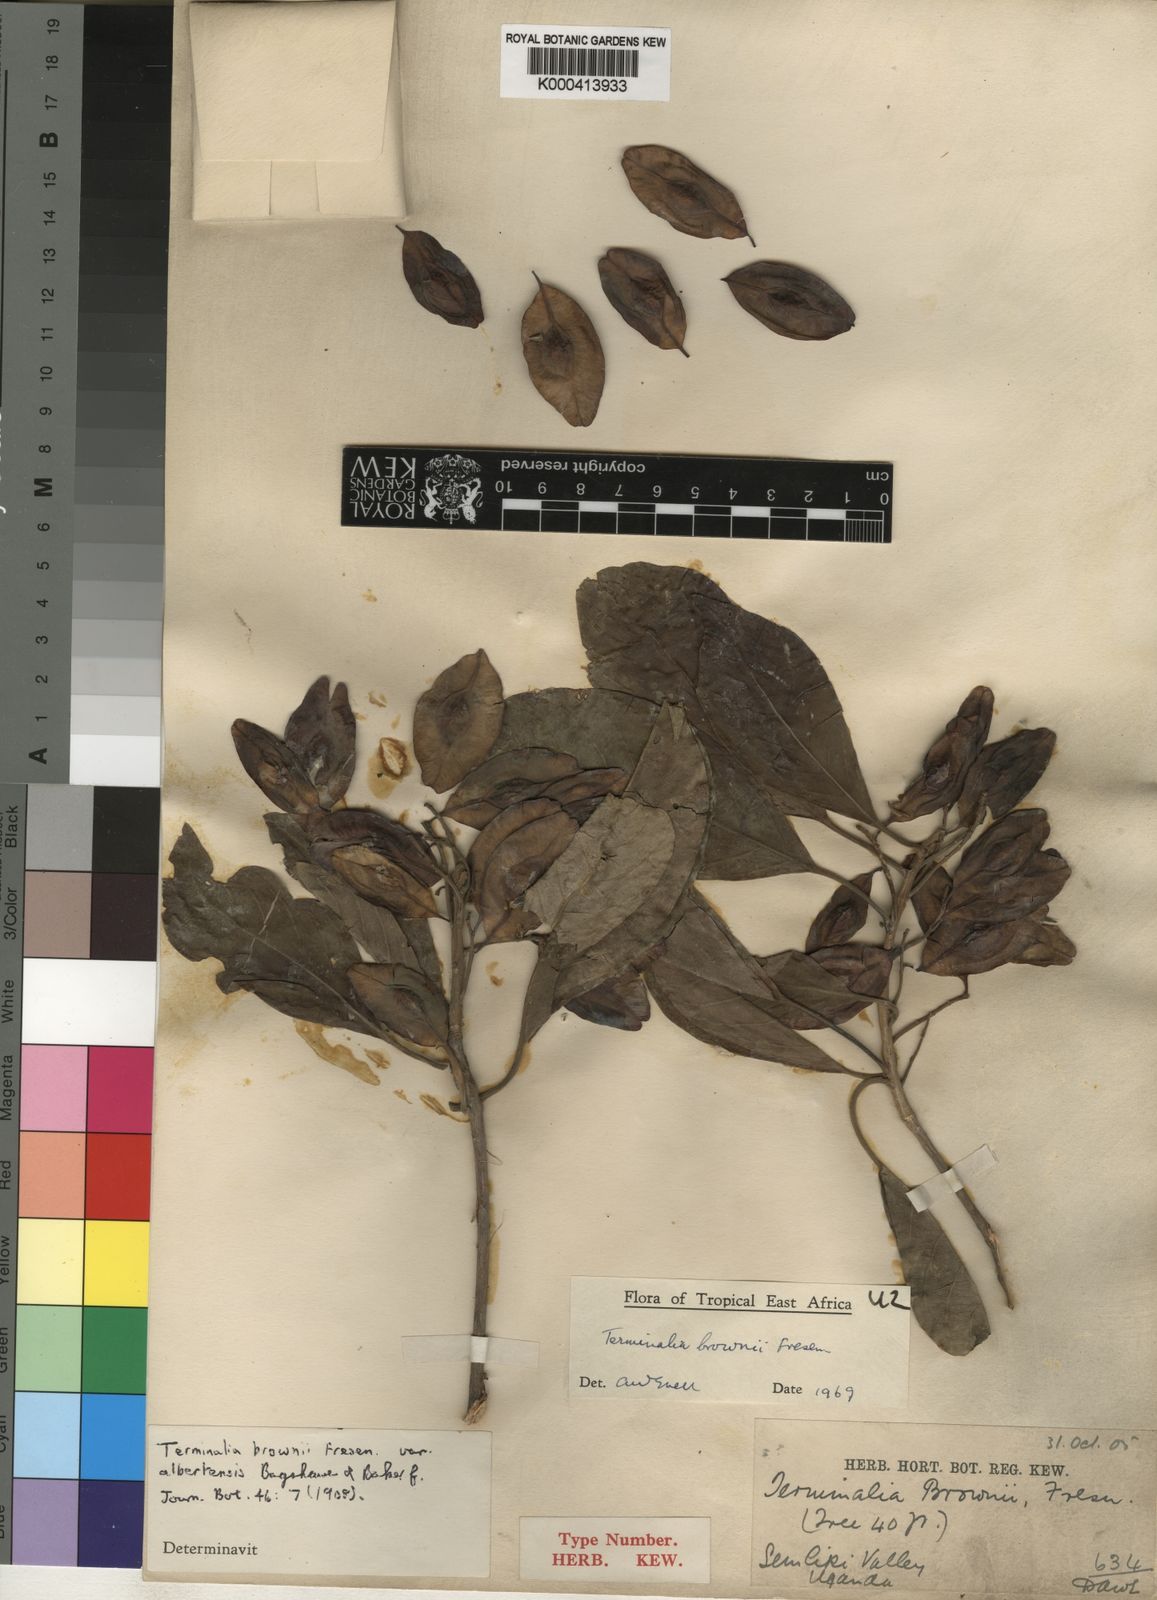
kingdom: Plantae
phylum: Tracheophyta
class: Magnoliopsida
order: Myrtales
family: Combretaceae
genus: Terminalia
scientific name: Terminalia brownii
